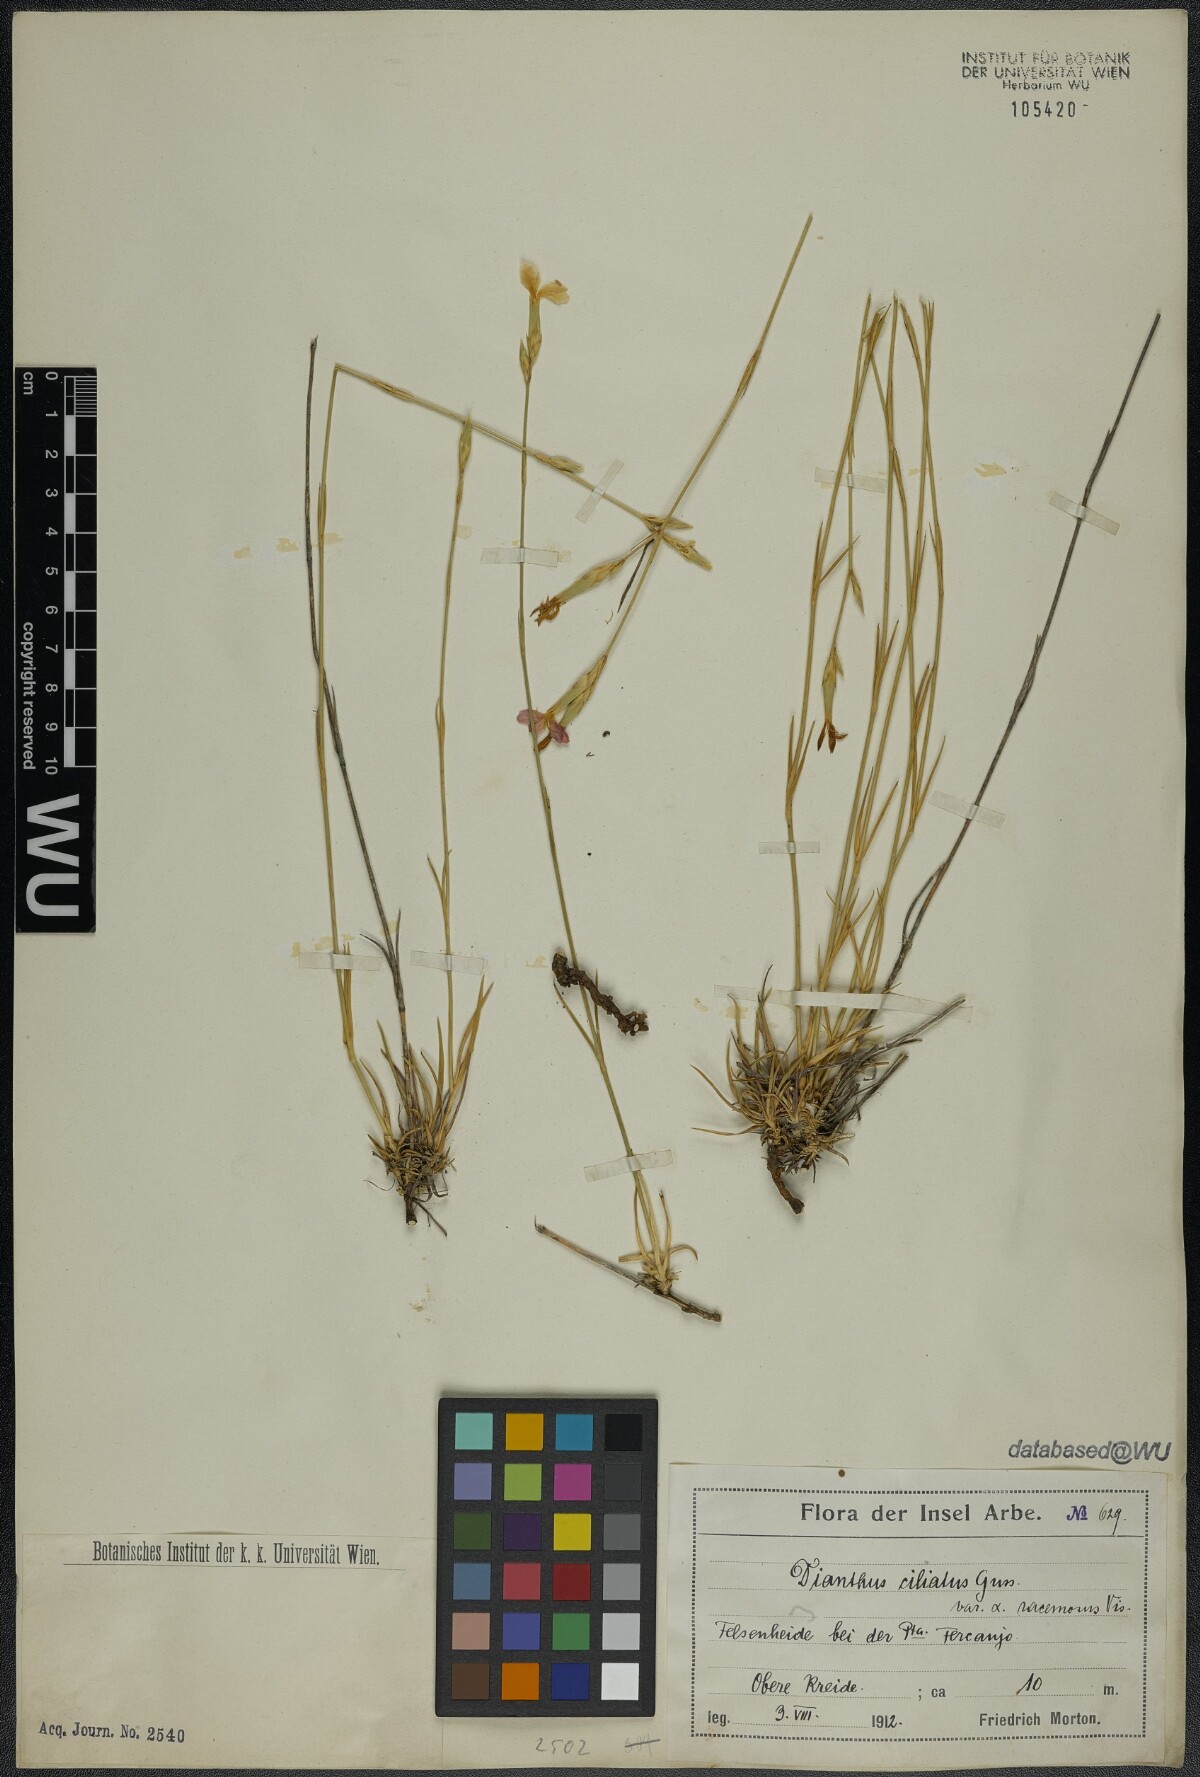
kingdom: Plantae
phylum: Tracheophyta
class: Magnoliopsida
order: Caryophyllales
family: Caryophyllaceae
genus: Dianthus
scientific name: Dianthus ciliatus
